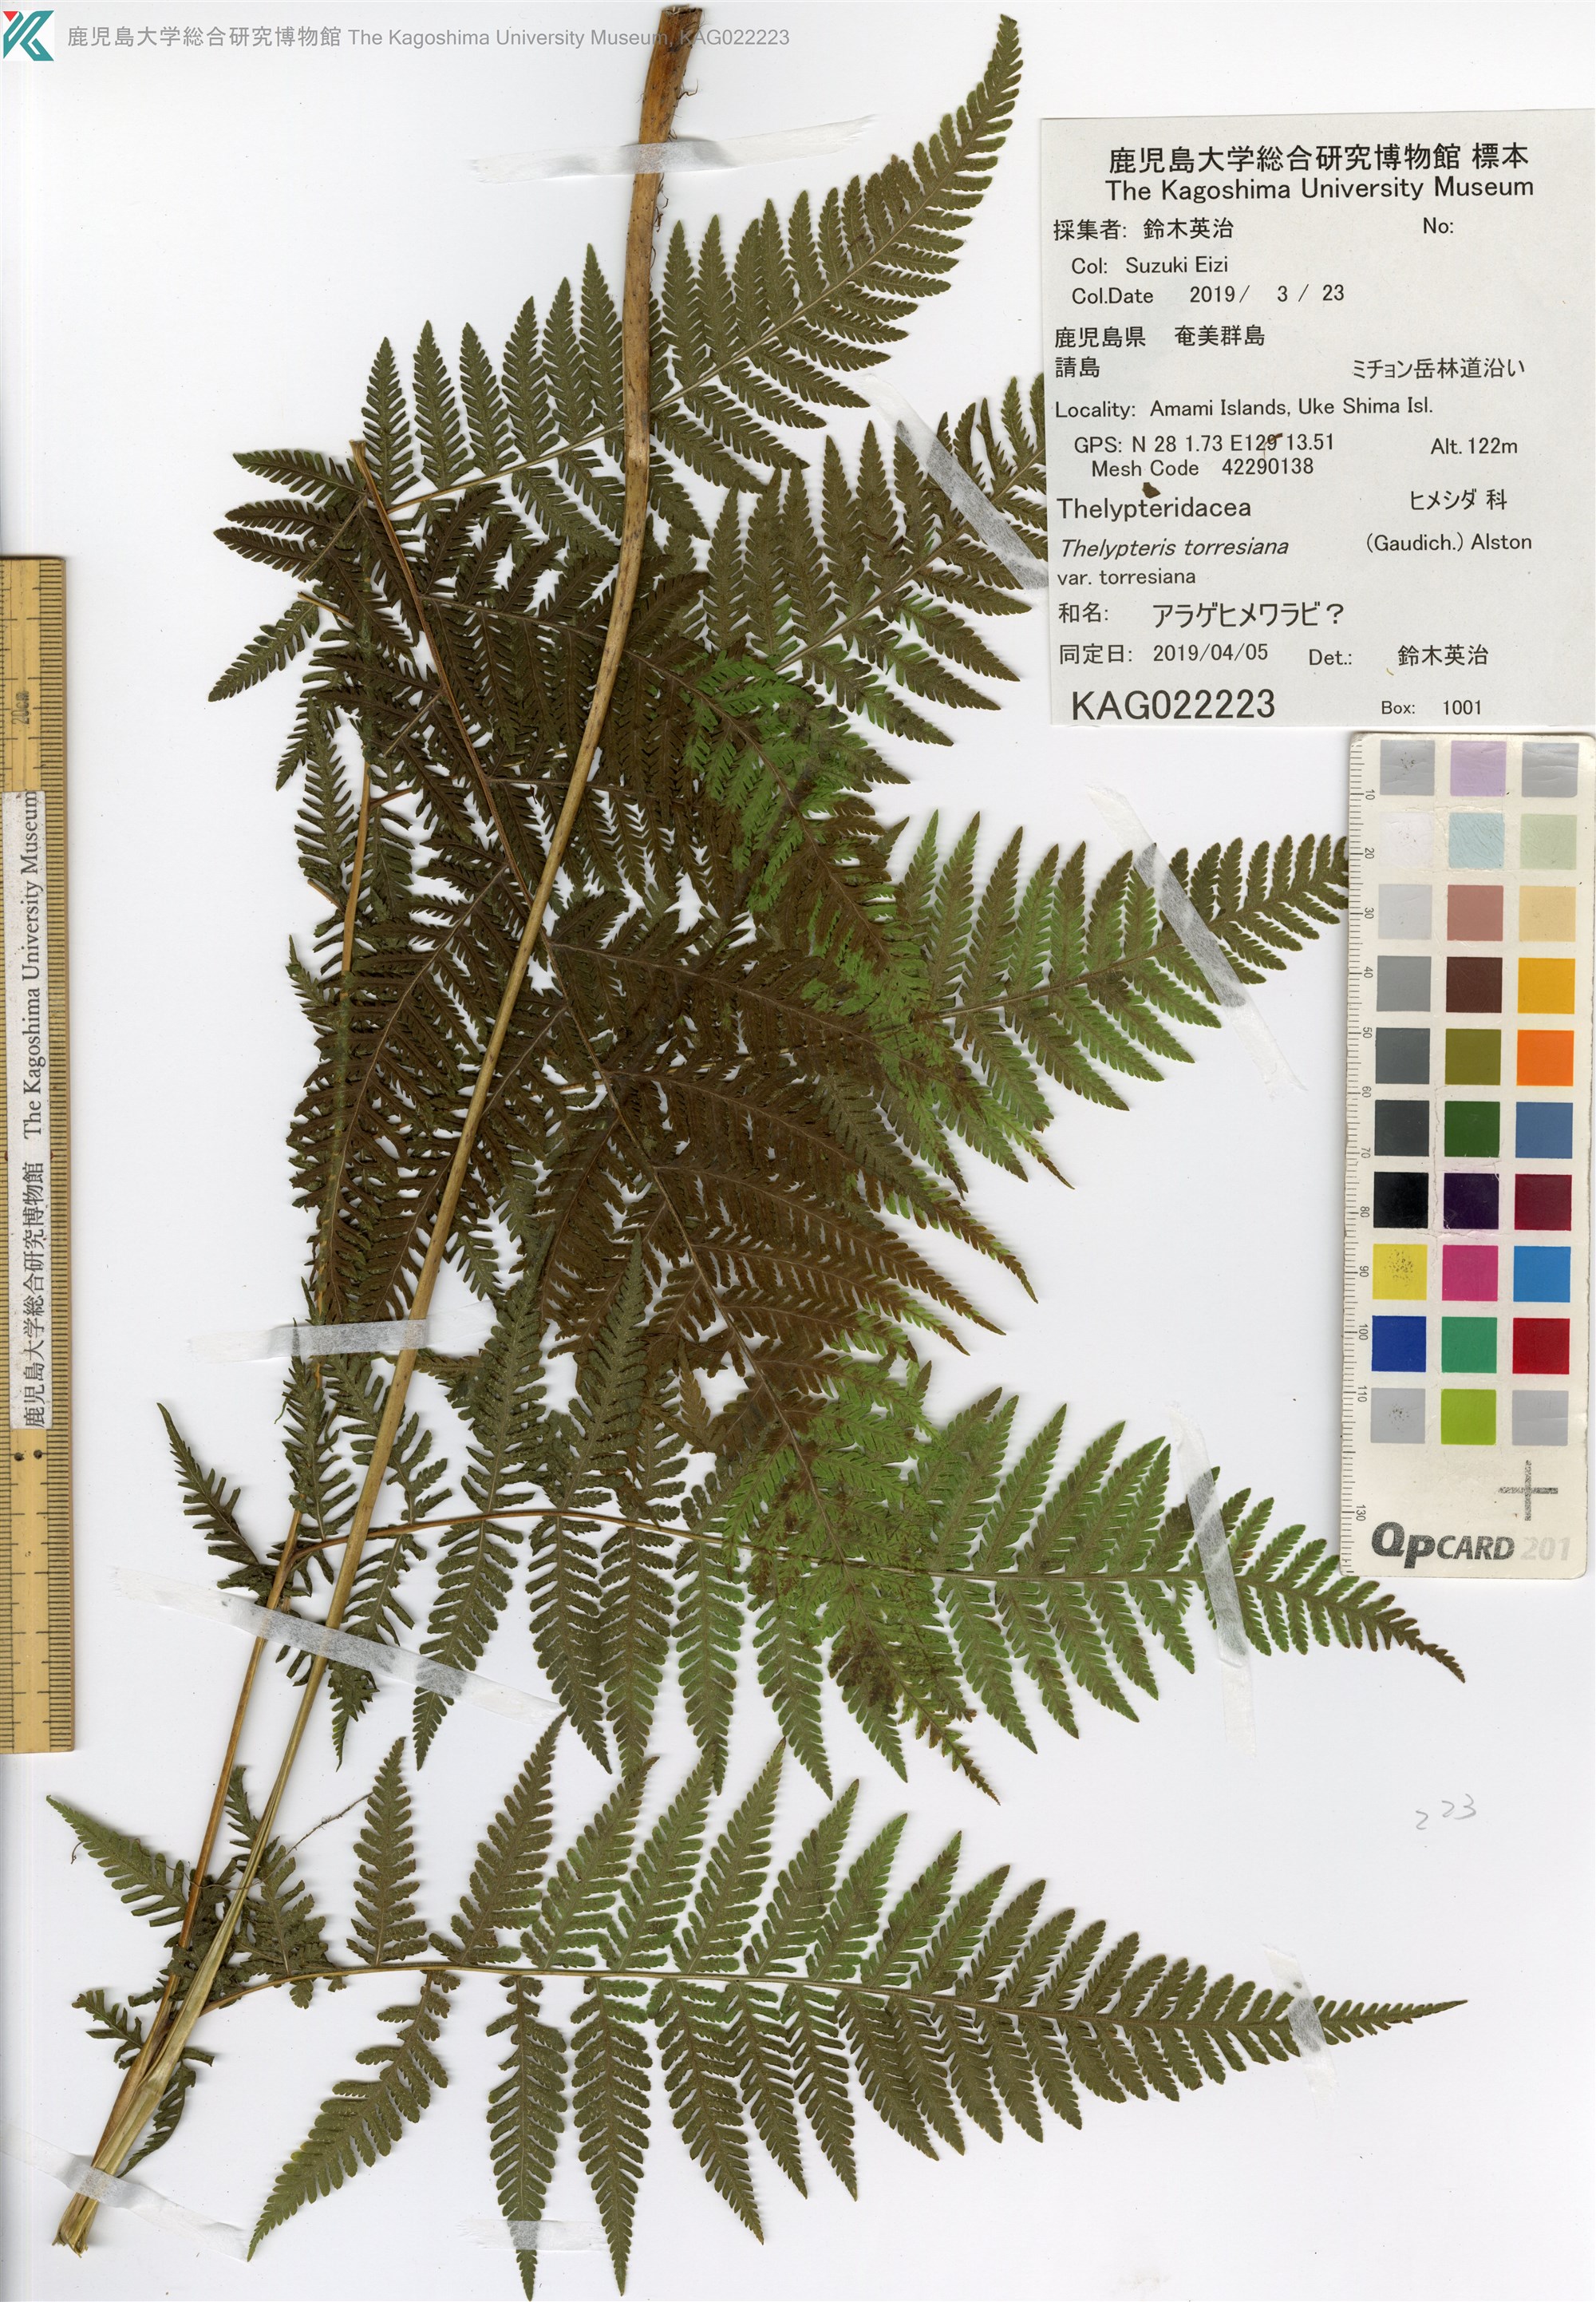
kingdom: Plantae
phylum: Tracheophyta
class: Polypodiopsida
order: Polypodiales
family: Thelypteridaceae
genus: Macrothelypteris
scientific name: Macrothelypteris torresiana
